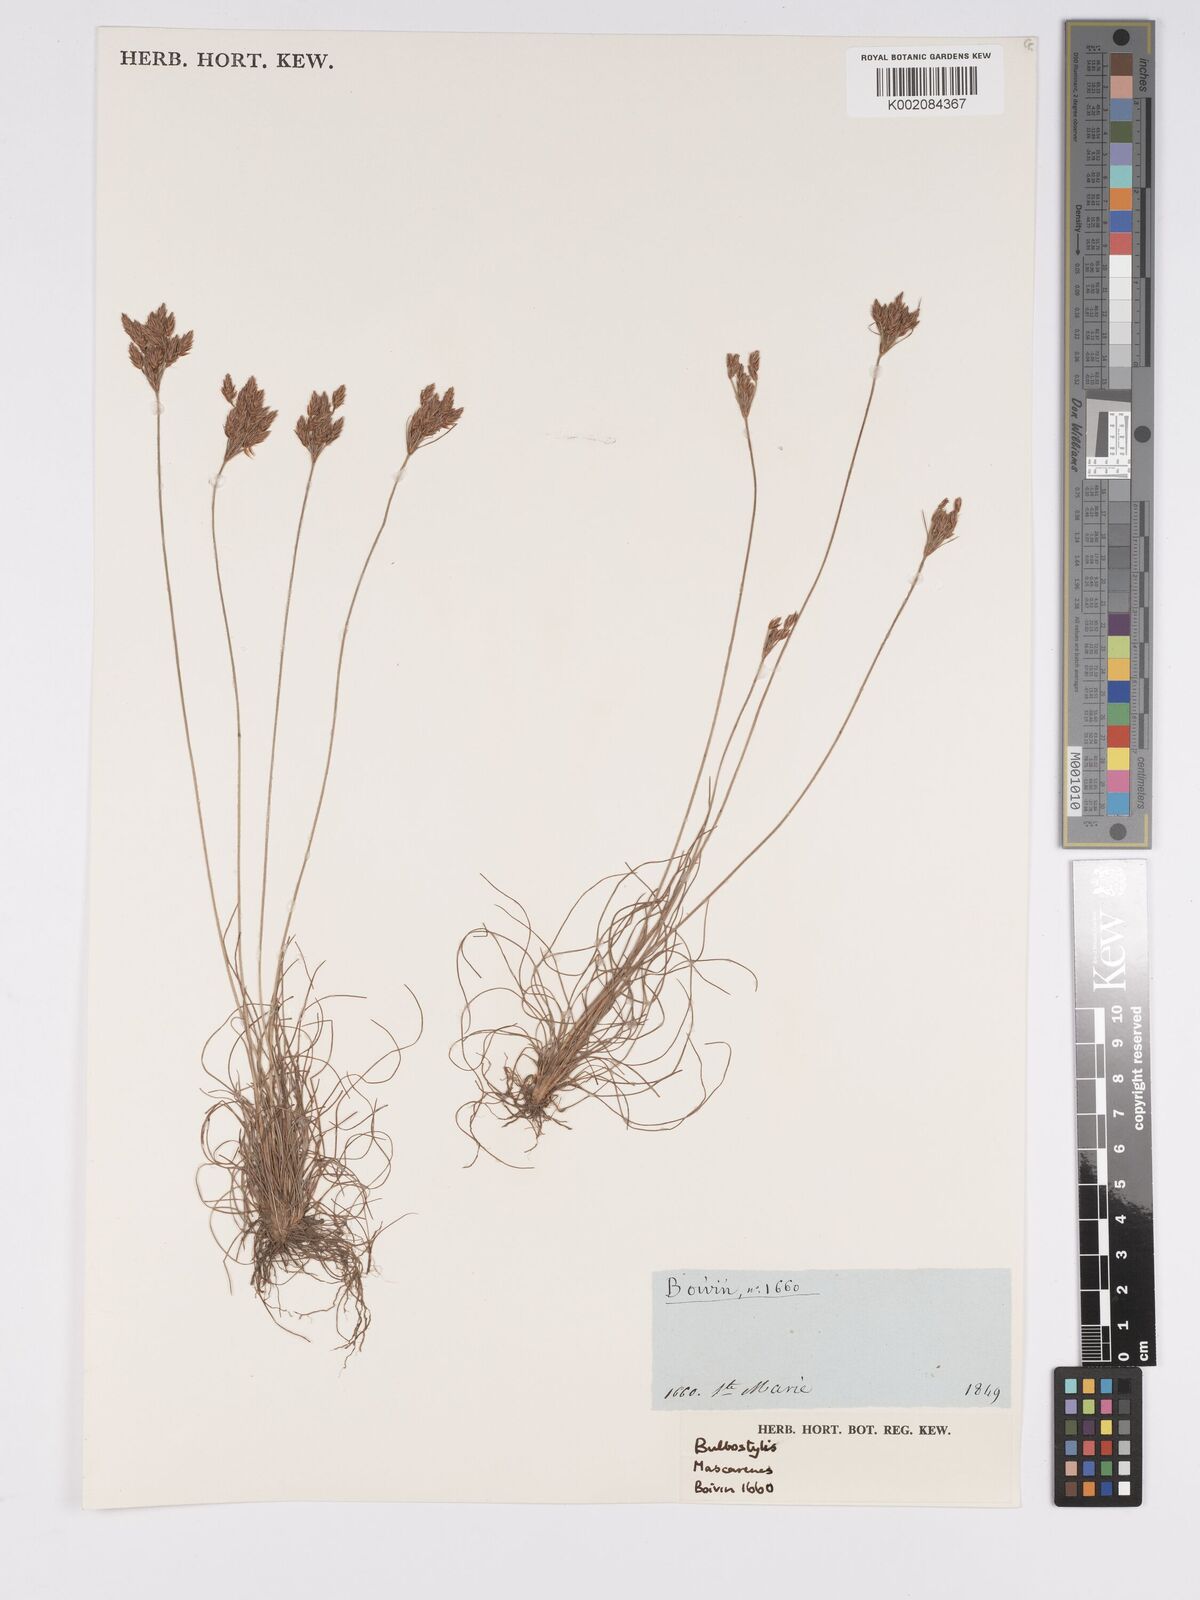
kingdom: Plantae
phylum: Tracheophyta
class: Liliopsida
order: Poales
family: Cyperaceae
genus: Bulbostylis
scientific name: Bulbostylis
